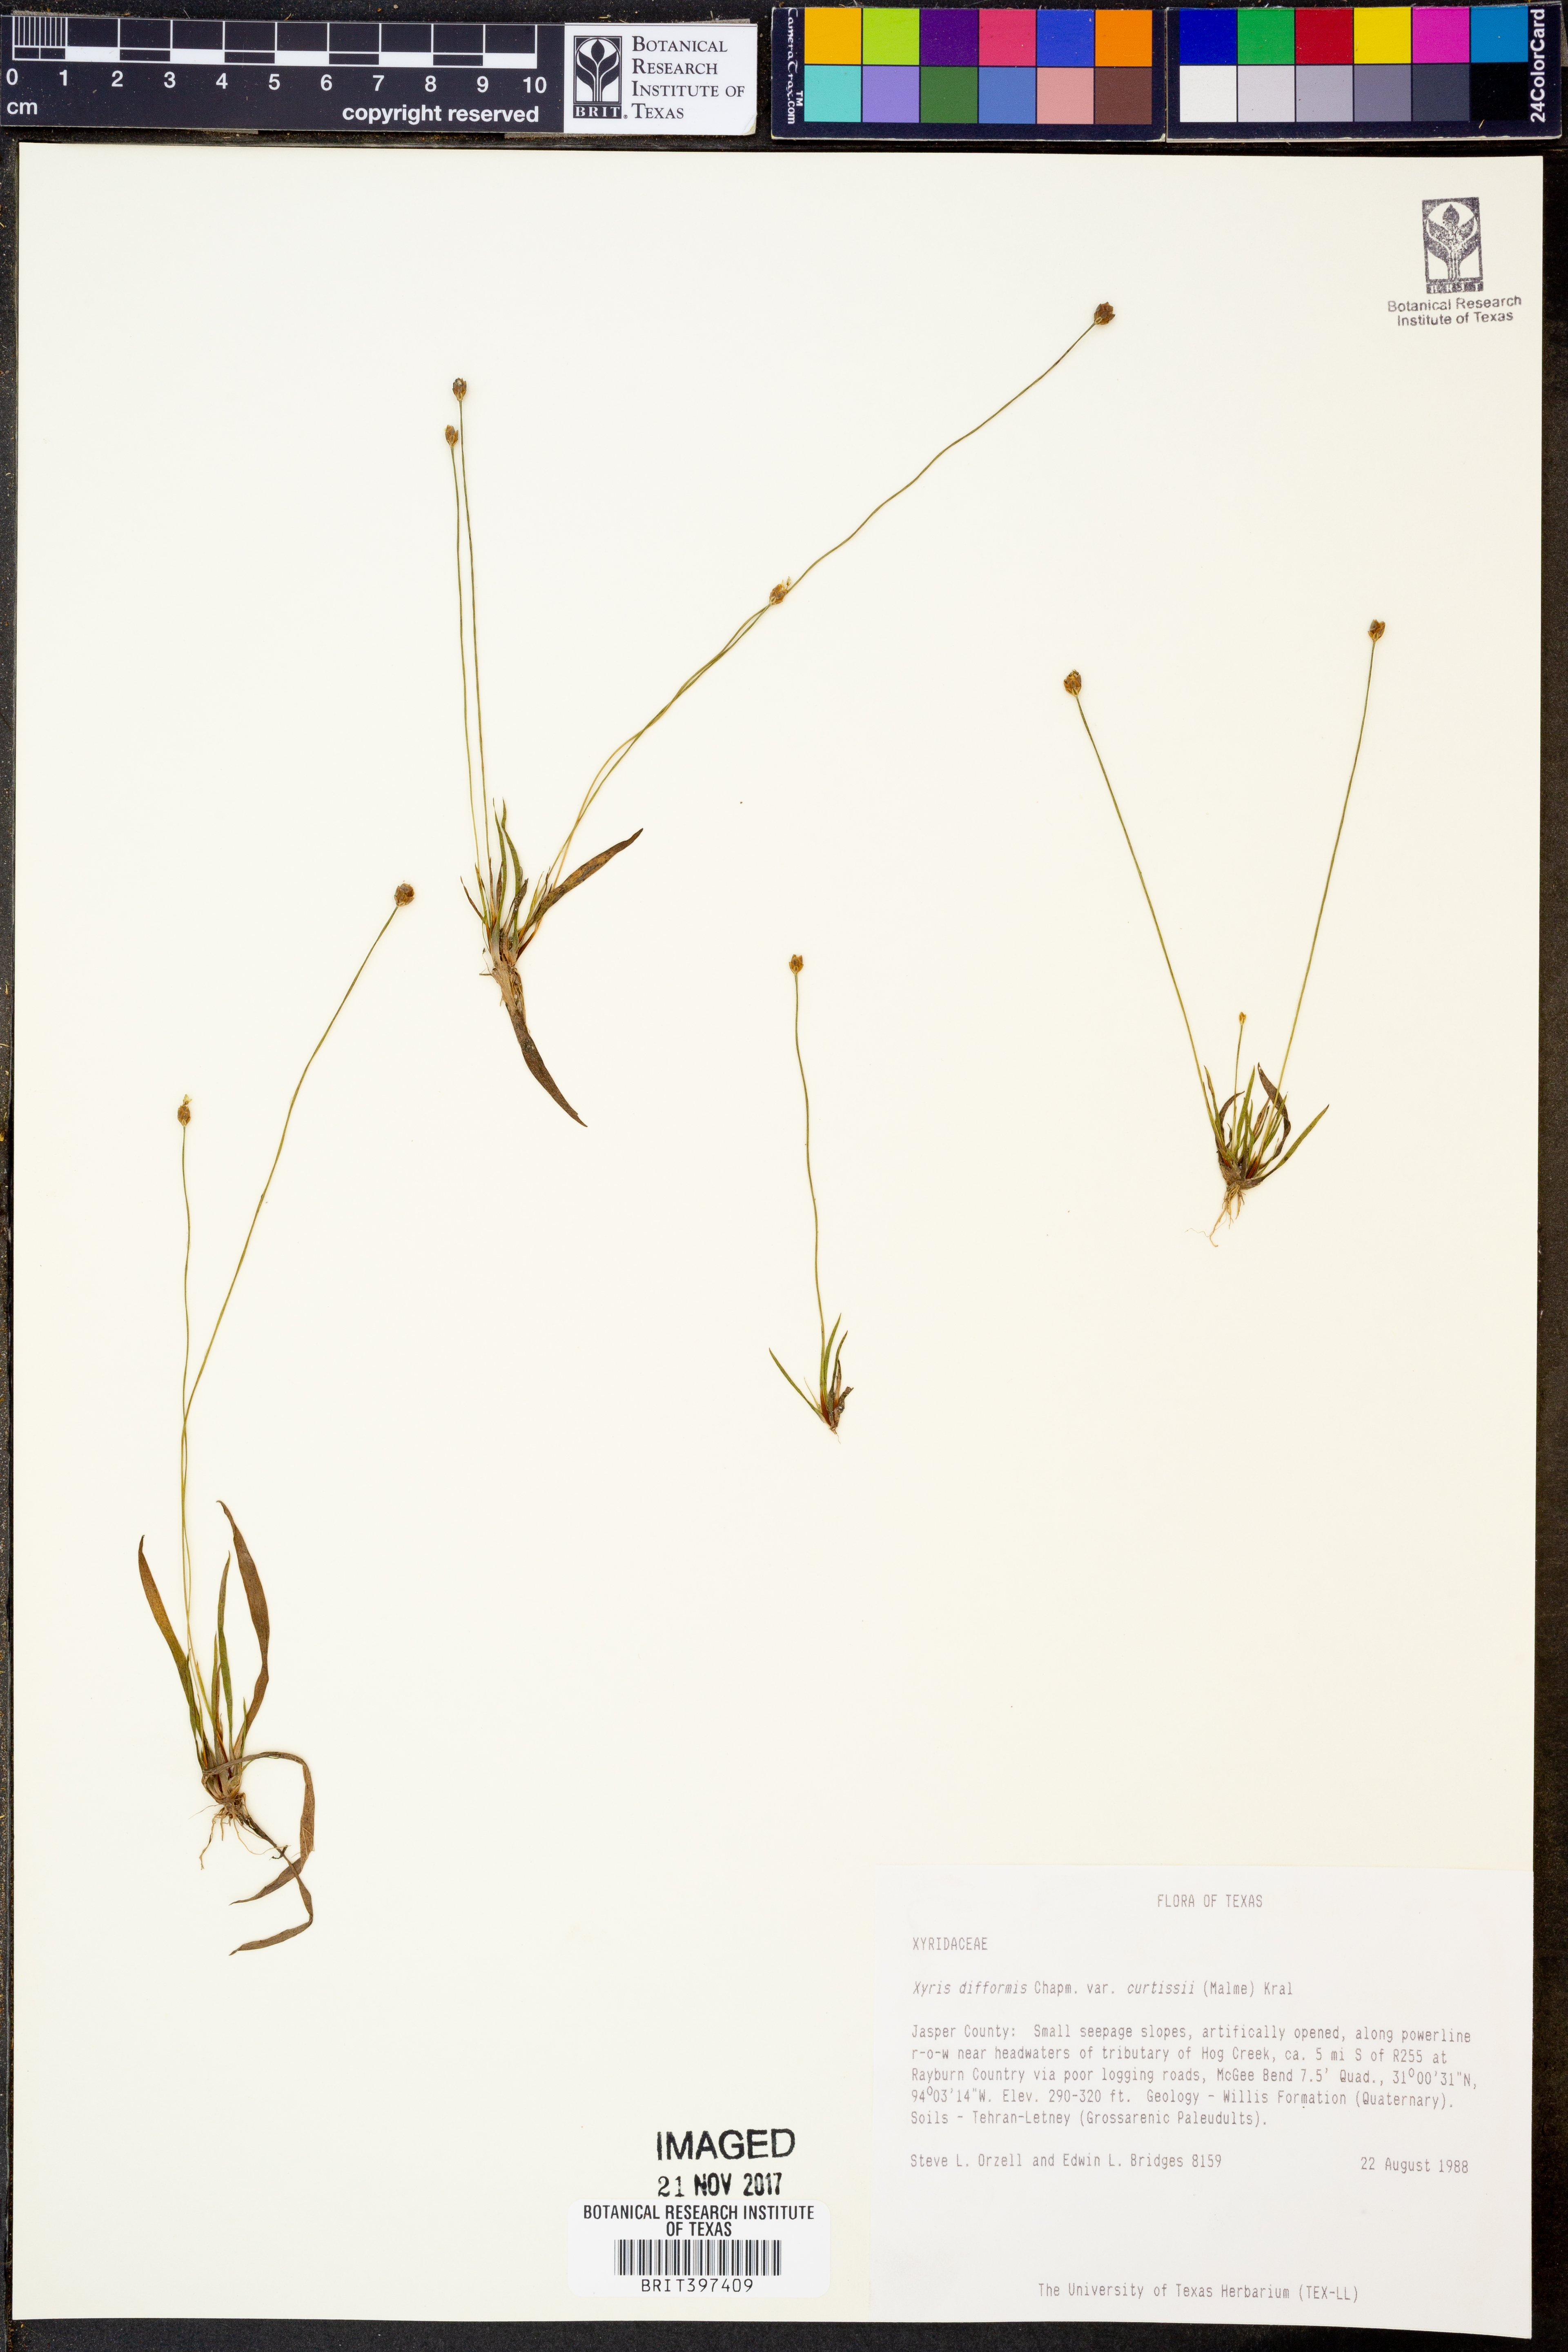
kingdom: Plantae
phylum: Tracheophyta
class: Liliopsida
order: Poales
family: Xyridaceae
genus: Xyris
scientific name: Xyris difformis
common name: Bog yellow-eyed-grass
